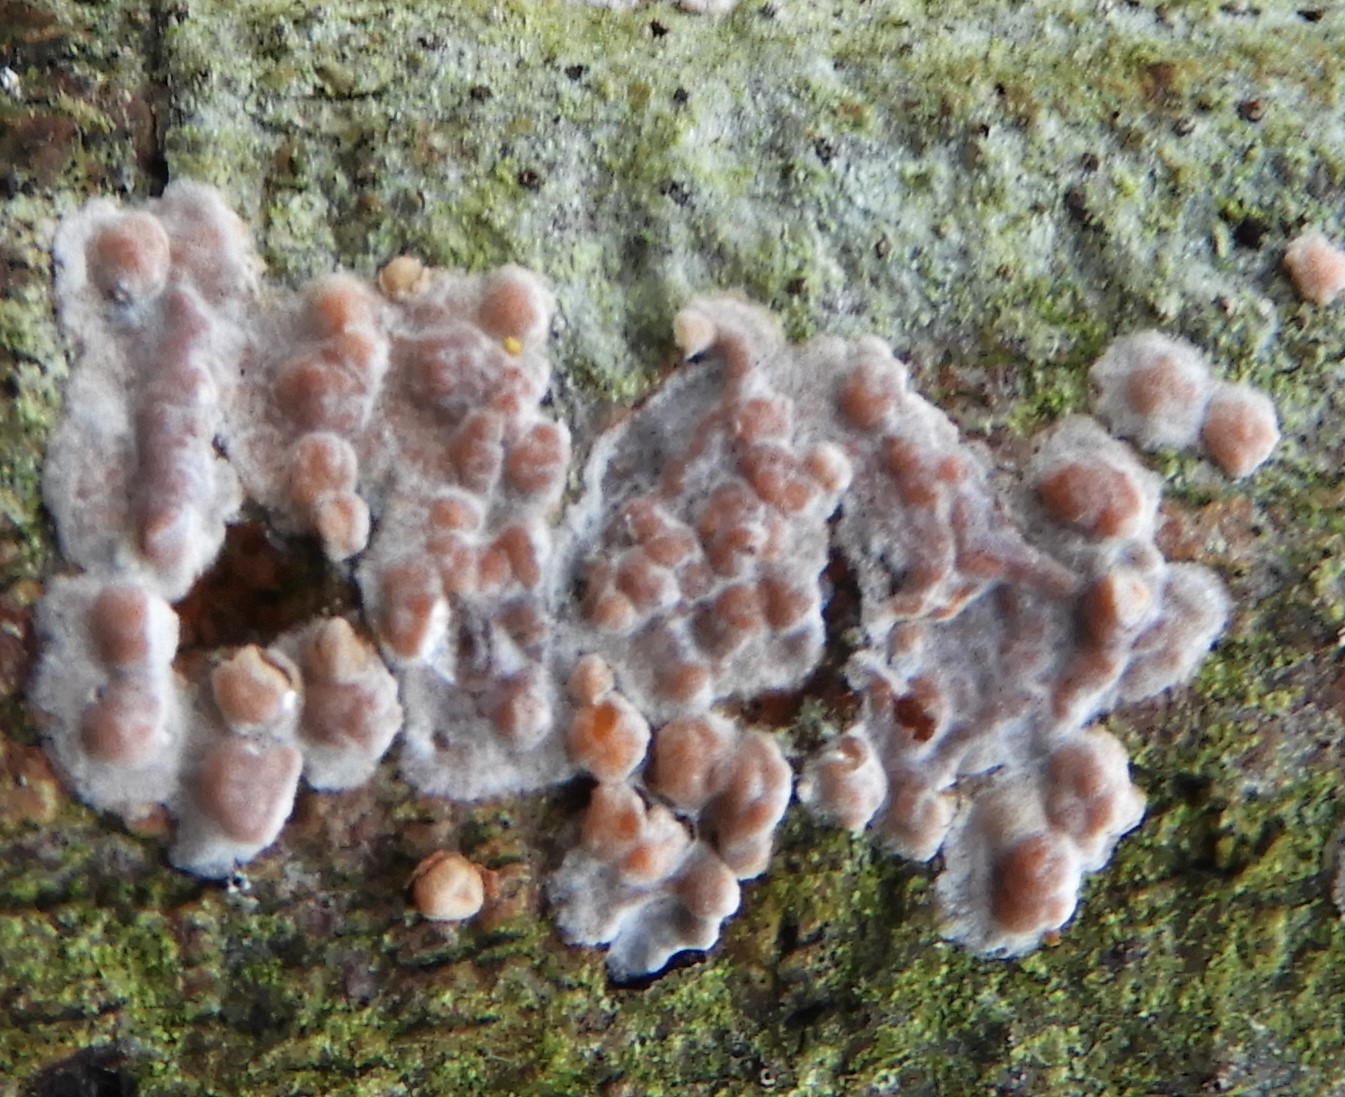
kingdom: Fungi
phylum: Basidiomycota
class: Agaricomycetes
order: Russulales
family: Peniophoraceae
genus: Peniophora
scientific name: Peniophora polygonia
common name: polygon-voksskind
